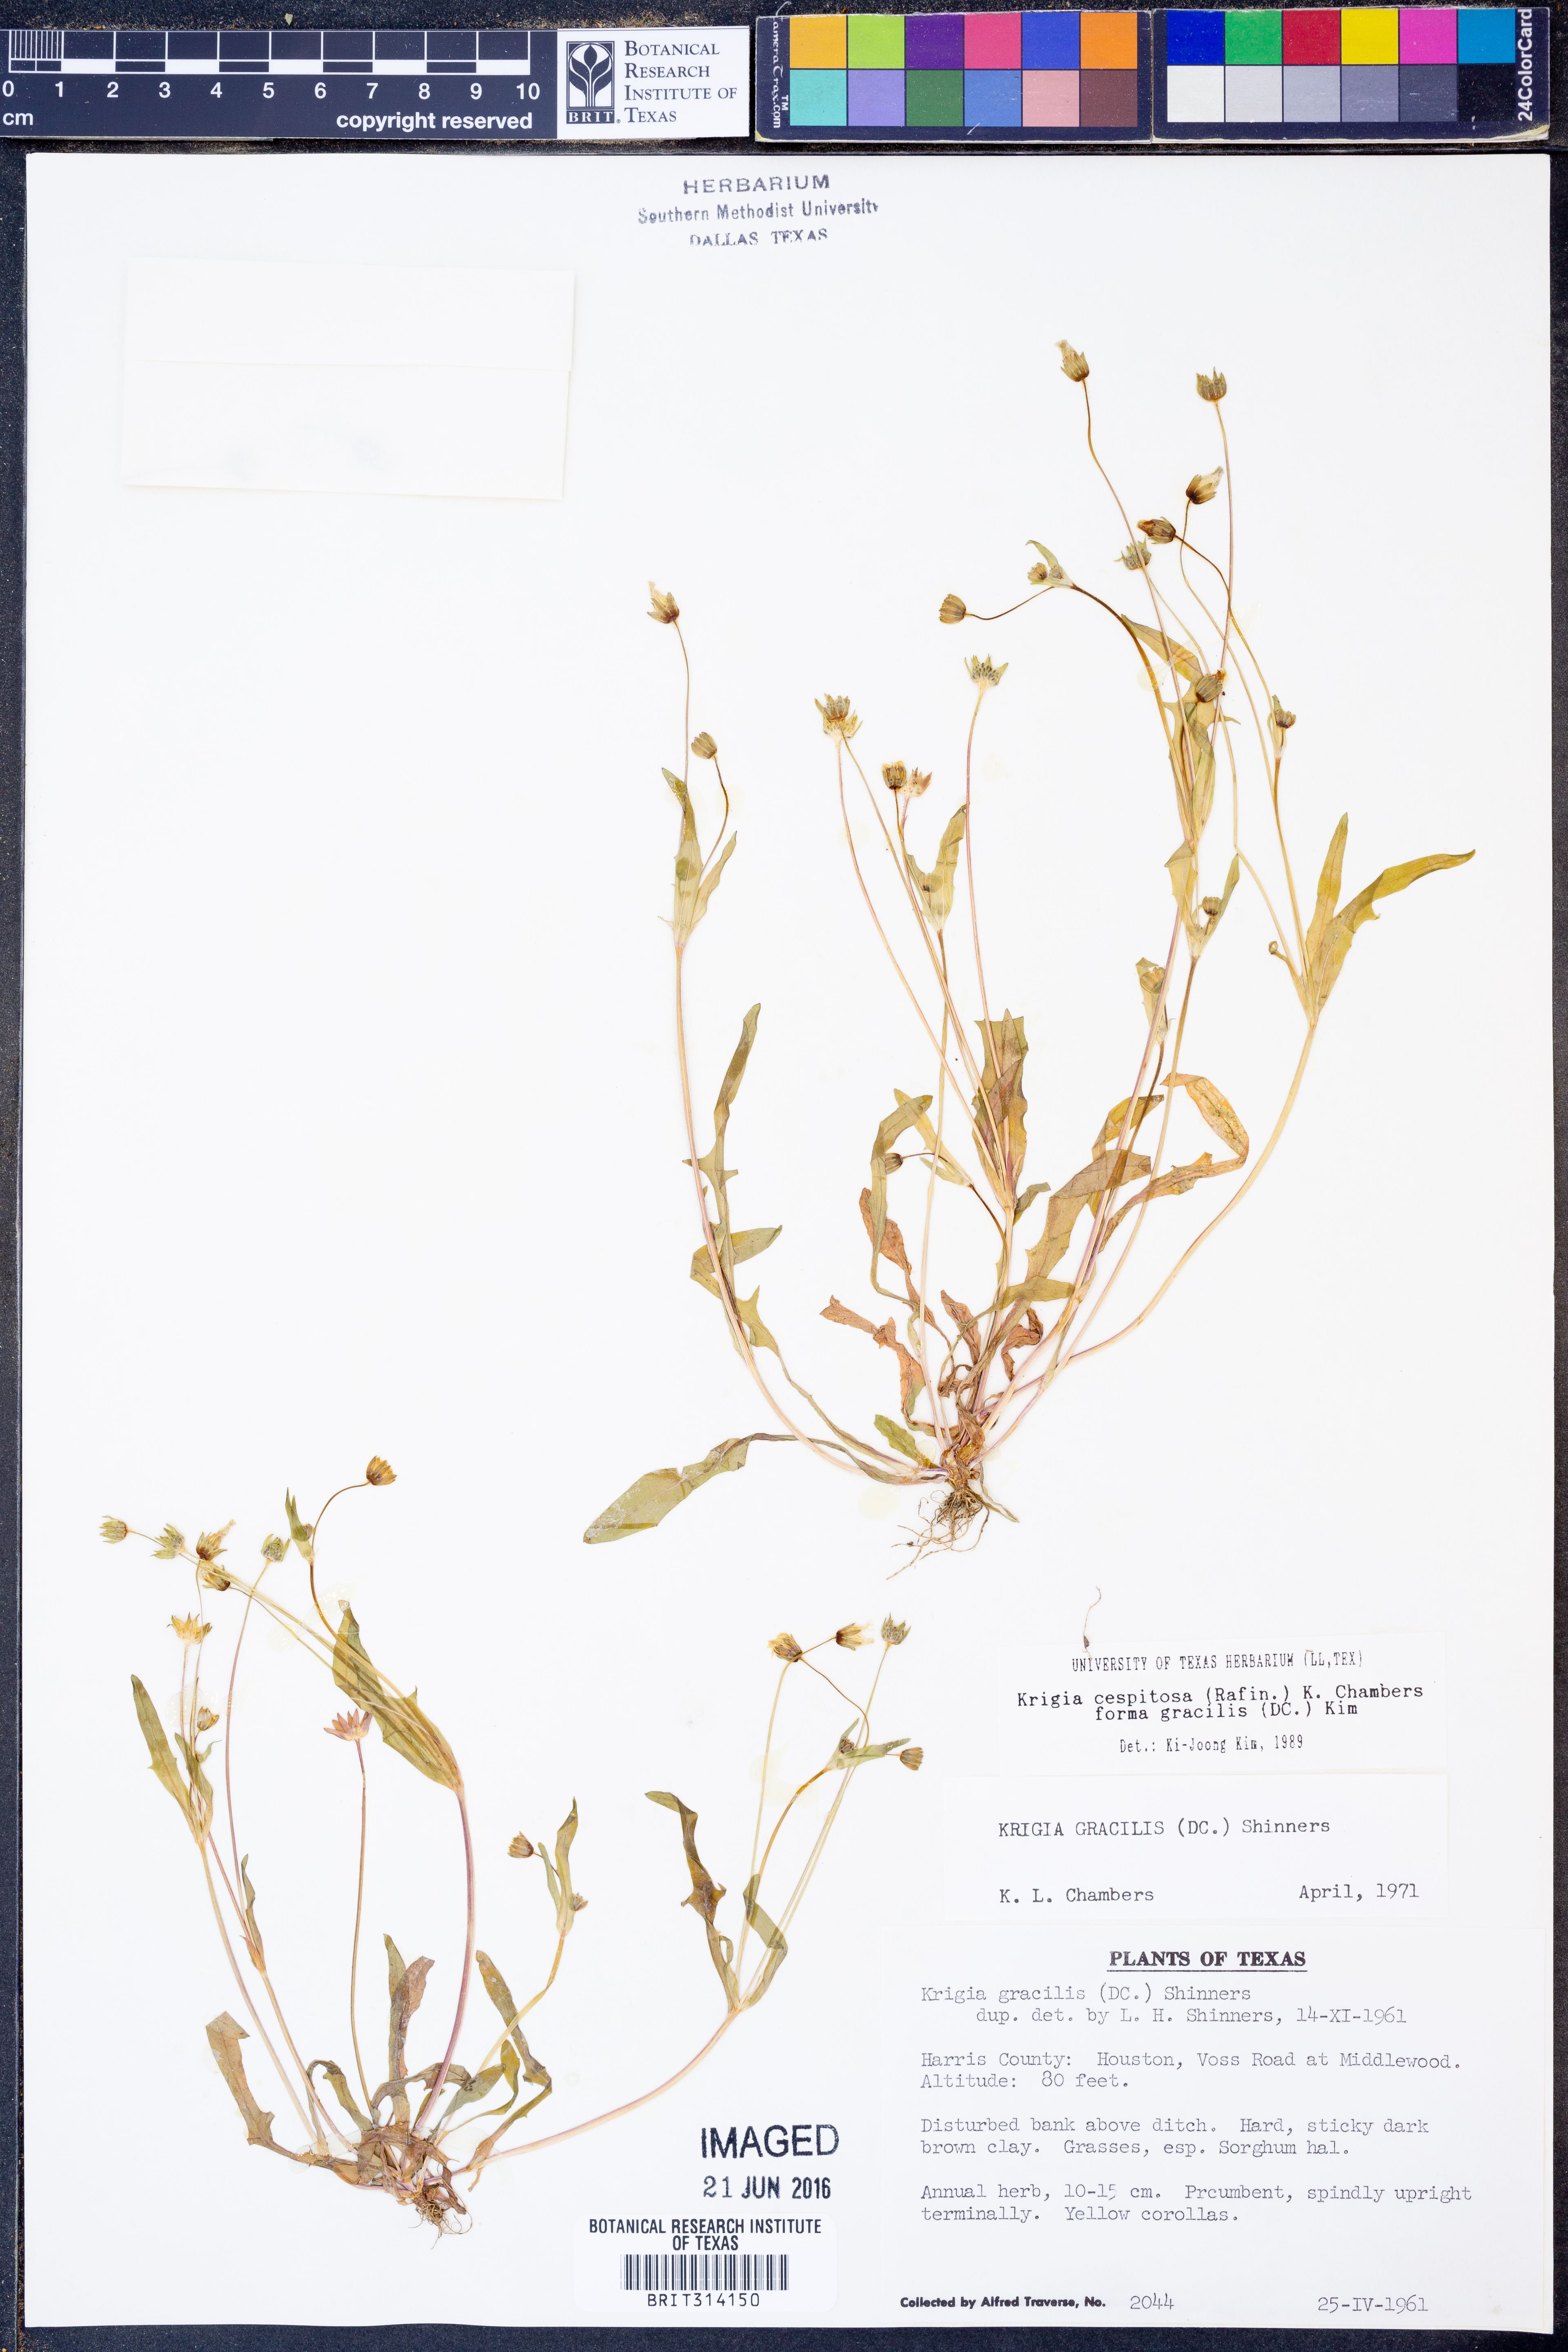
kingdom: Plantae
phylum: Tracheophyta
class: Magnoliopsida
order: Asterales
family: Asteraceae
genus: Krigia
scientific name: Krigia cespitosa
